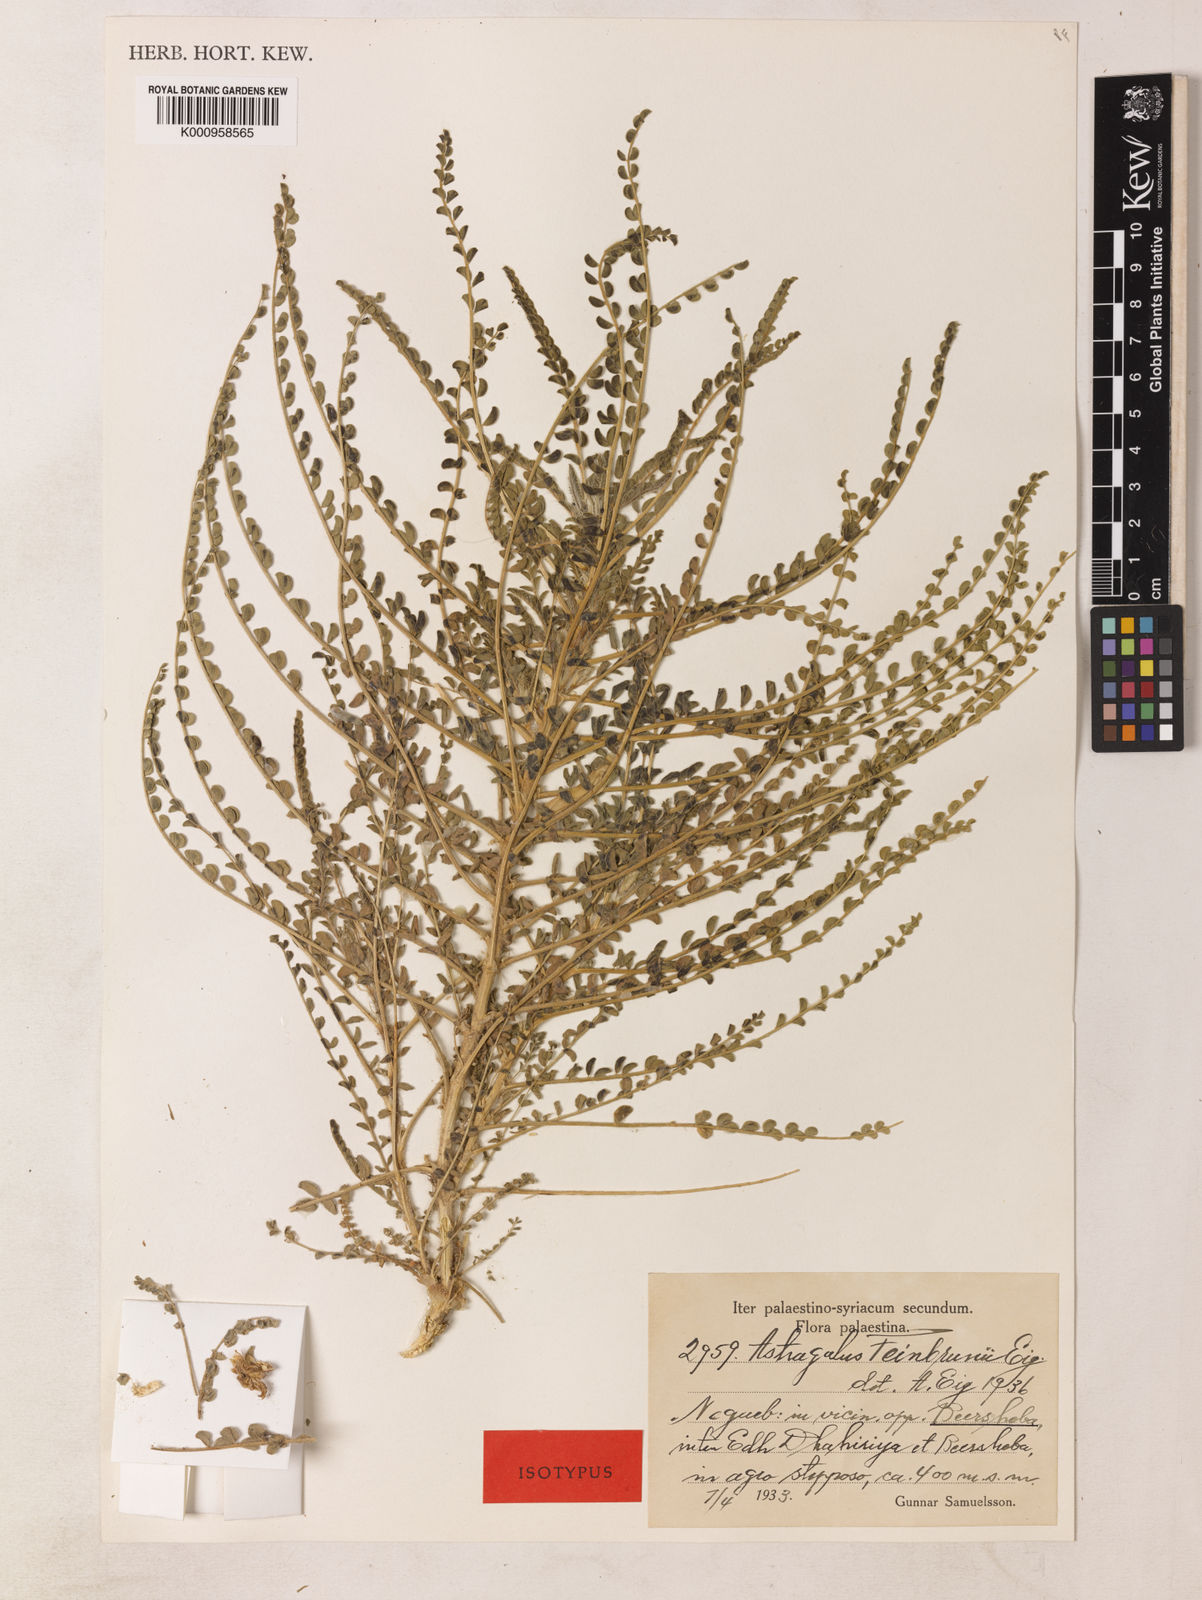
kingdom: Plantae
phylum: Tracheophyta
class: Magnoliopsida
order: Fabales
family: Fabaceae
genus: Astragalus
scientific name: Astragalus
